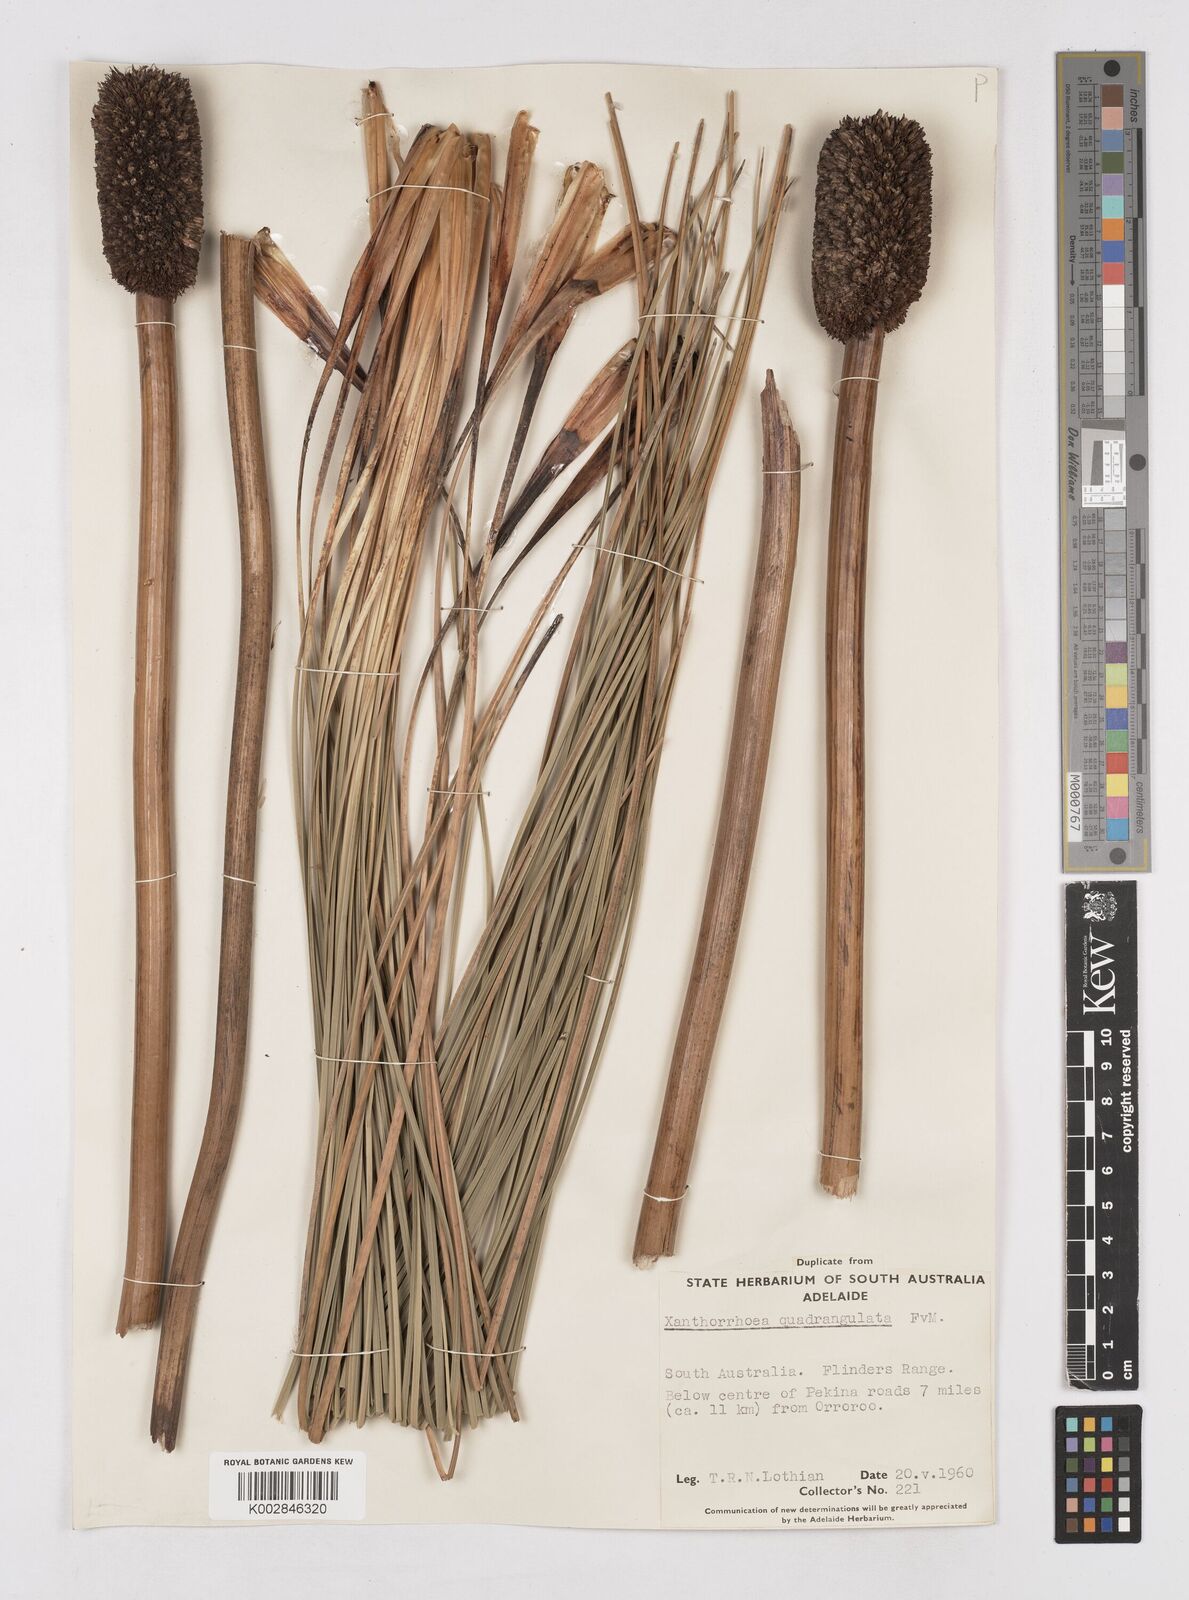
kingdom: Plantae
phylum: Tracheophyta
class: Liliopsida
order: Asparagales
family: Asphodelaceae
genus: Xanthorrhoea
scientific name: Xanthorrhoea quadrangulata
